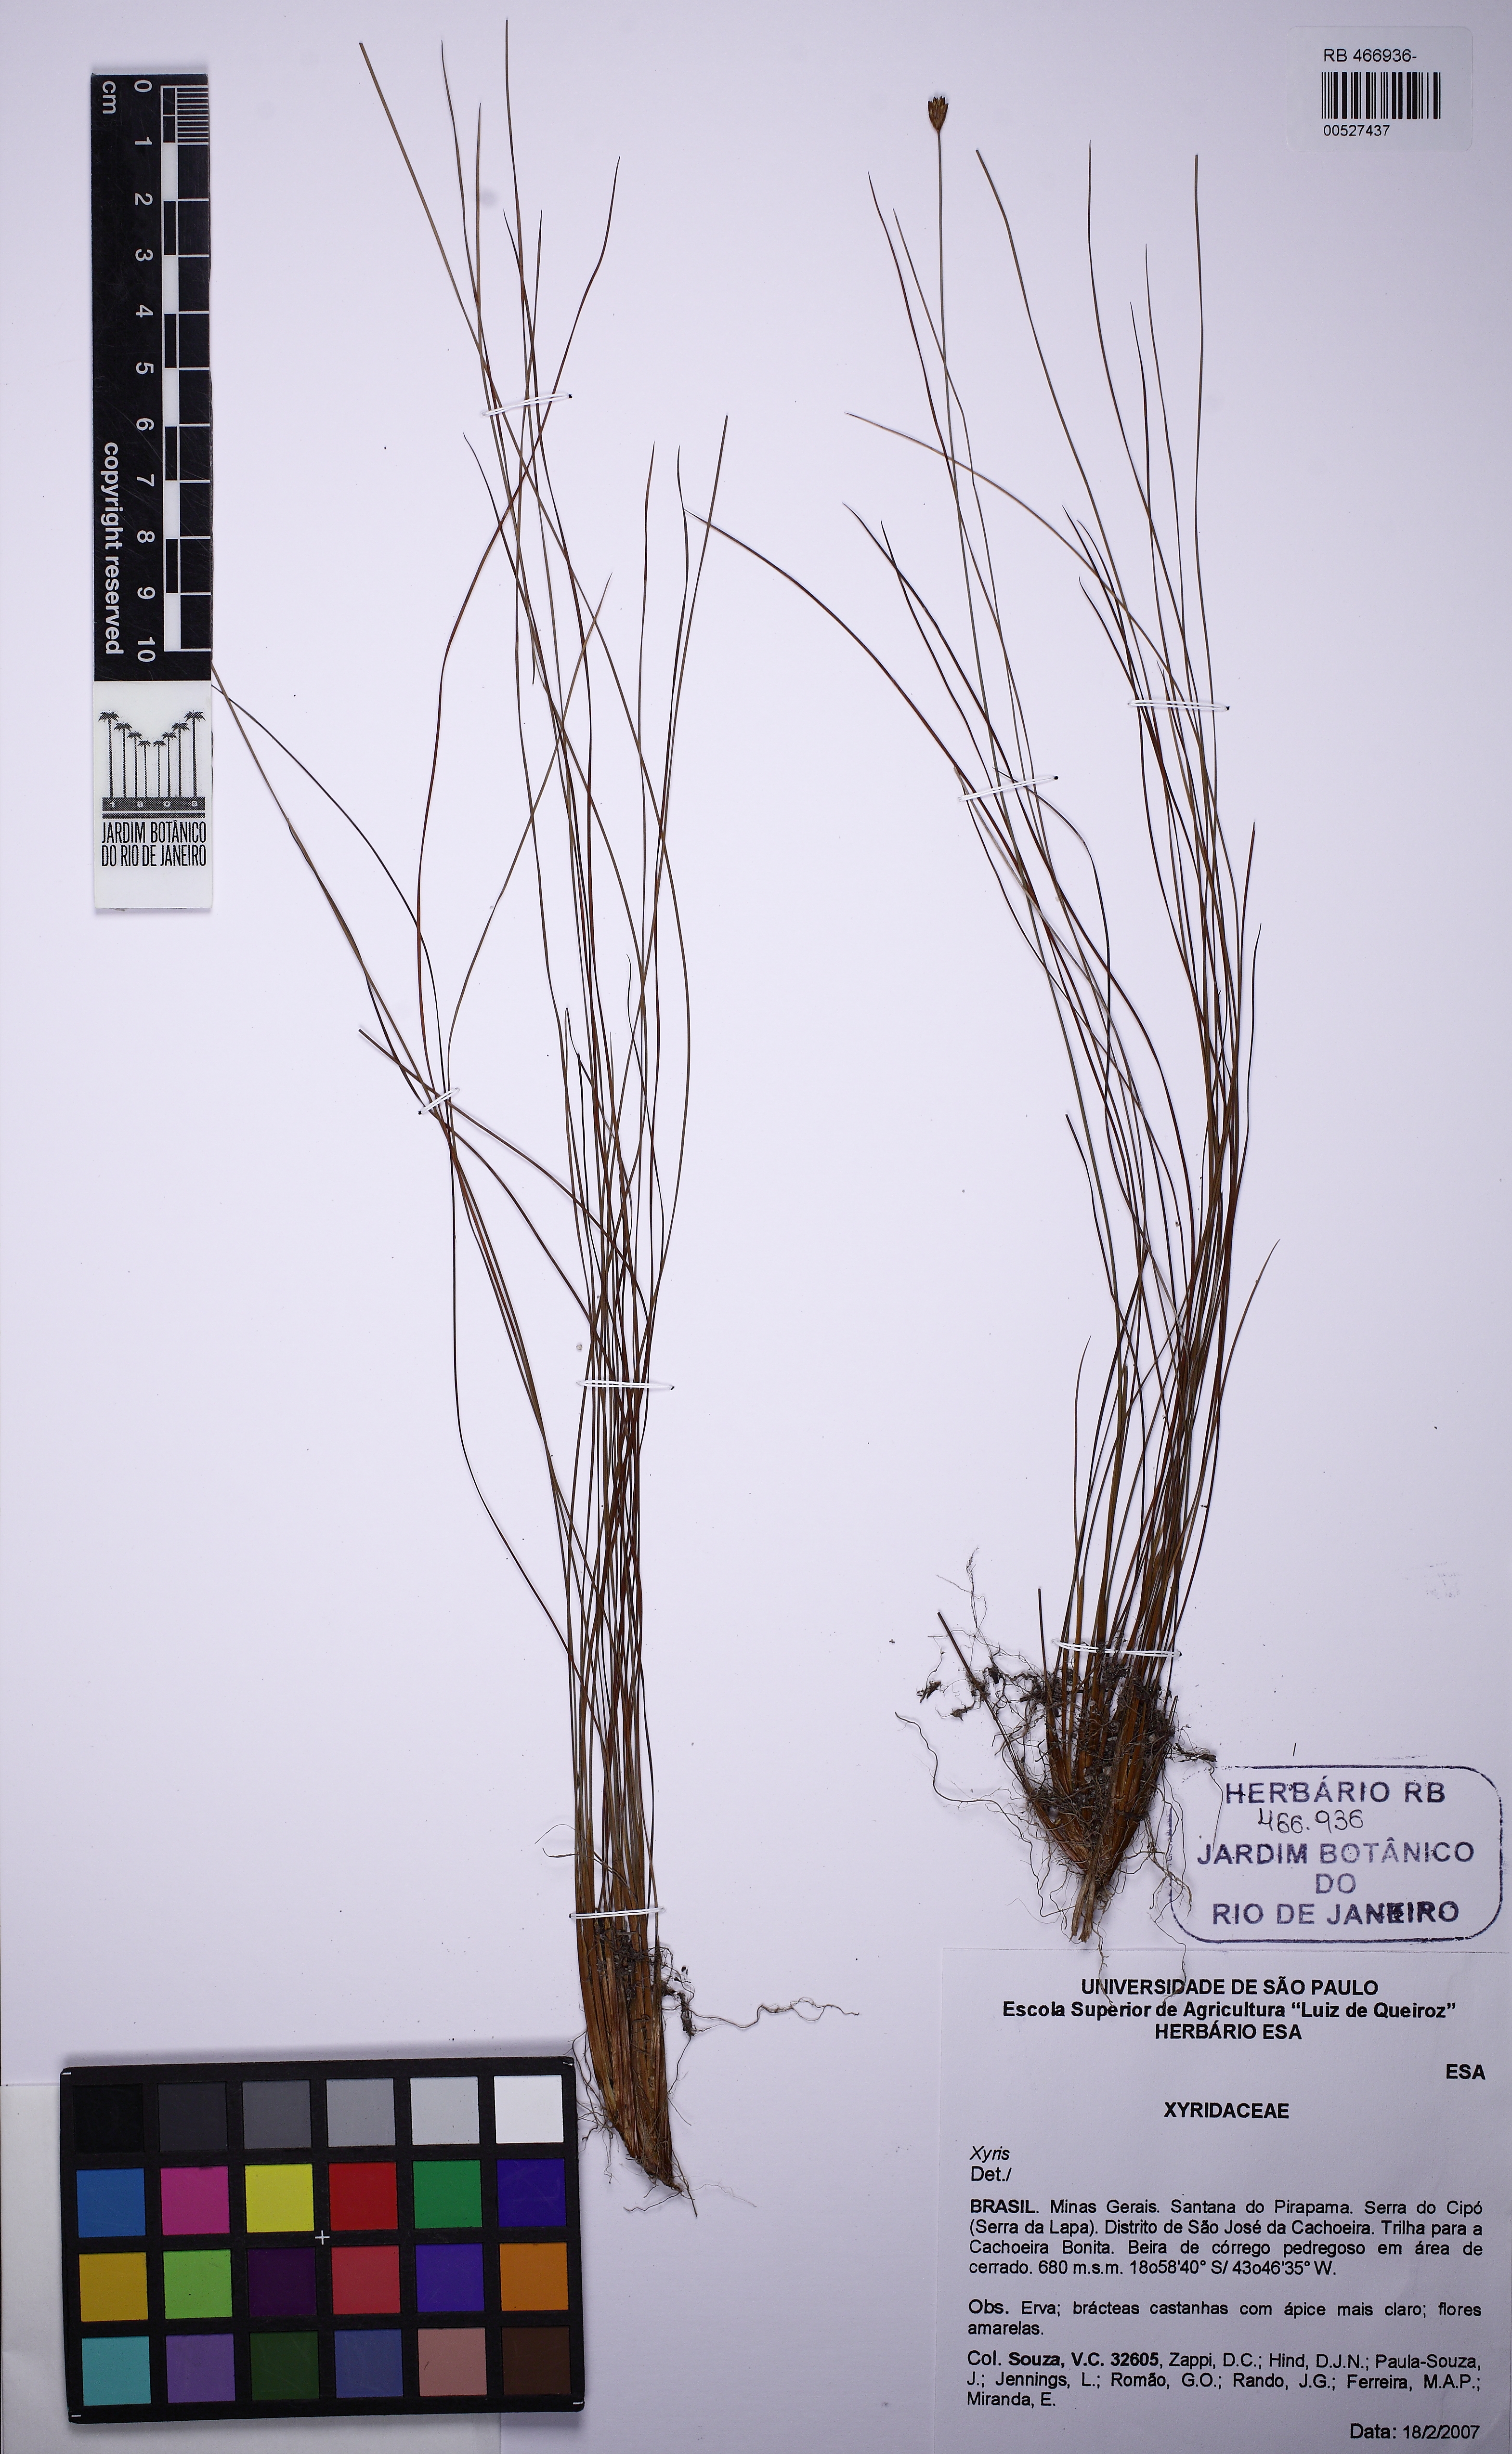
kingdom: Plantae
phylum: Tracheophyta
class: Liliopsida
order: Poales
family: Xyridaceae
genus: Xyris
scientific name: Xyris spinulosa
